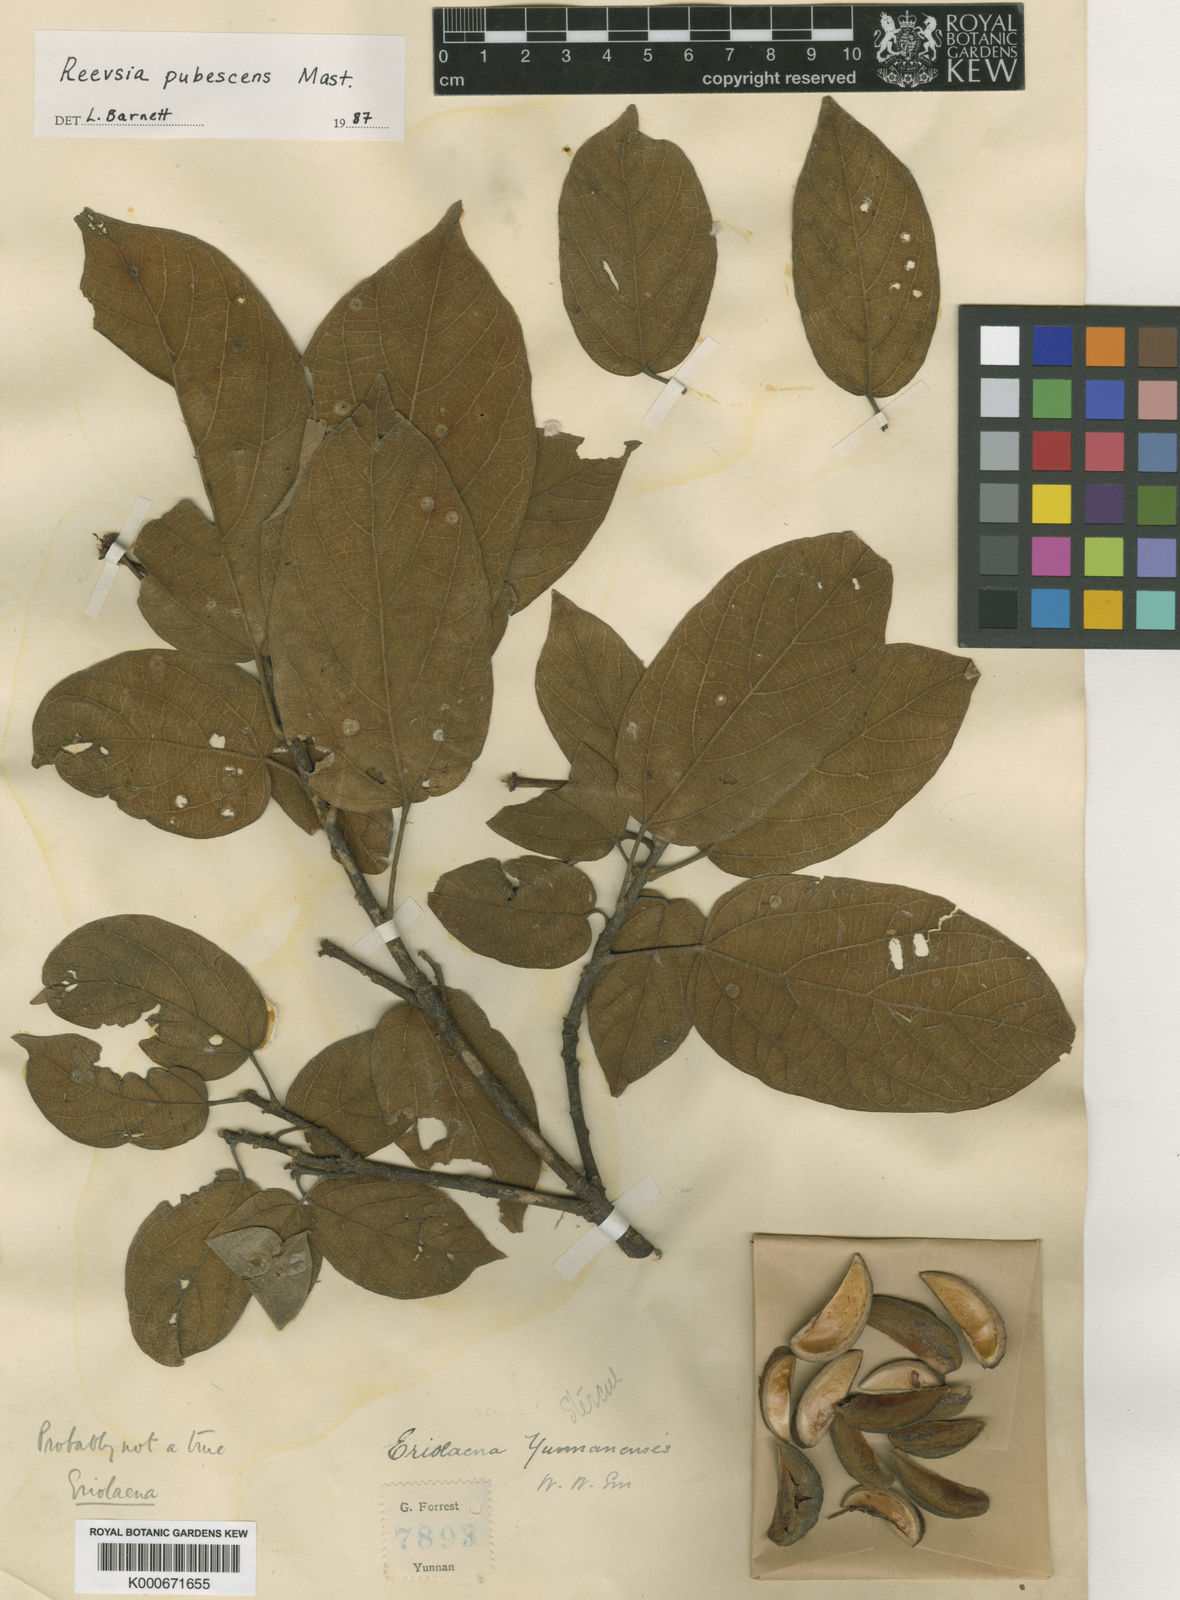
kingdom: Plantae
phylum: Tracheophyta
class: Magnoliopsida
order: Malvales
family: Malvaceae
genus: Reevesia
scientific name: Reevesia pubescens
